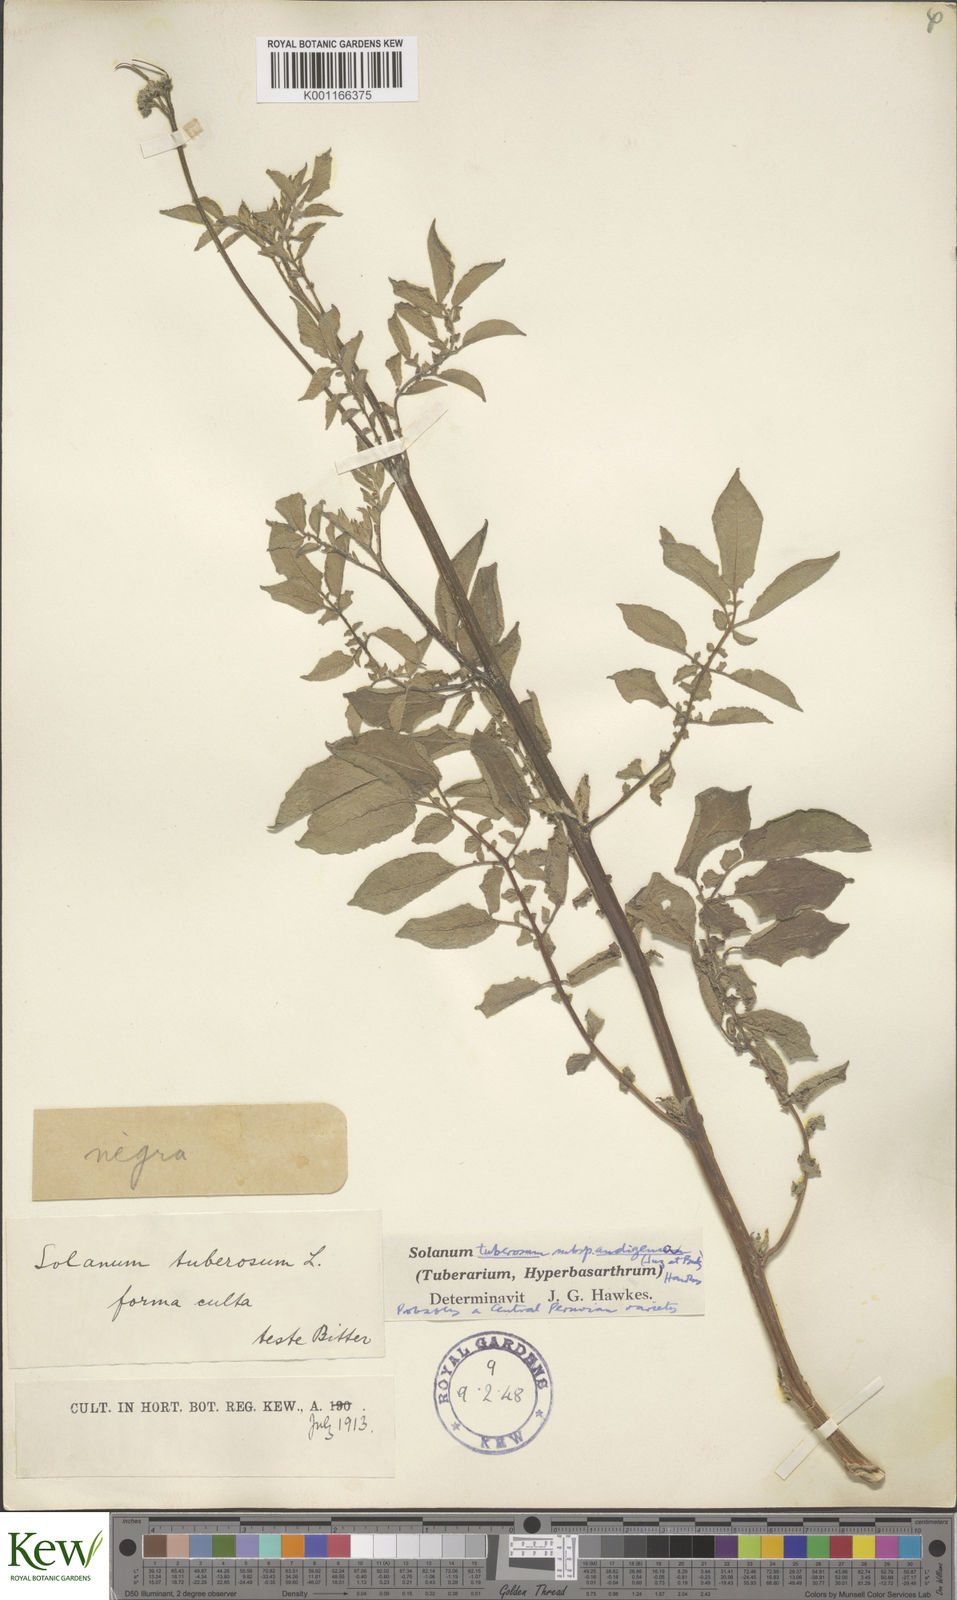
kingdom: Plantae
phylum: Tracheophyta
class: Magnoliopsida
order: Solanales
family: Solanaceae
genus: Solanum
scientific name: Solanum tuberosum
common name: Potato
